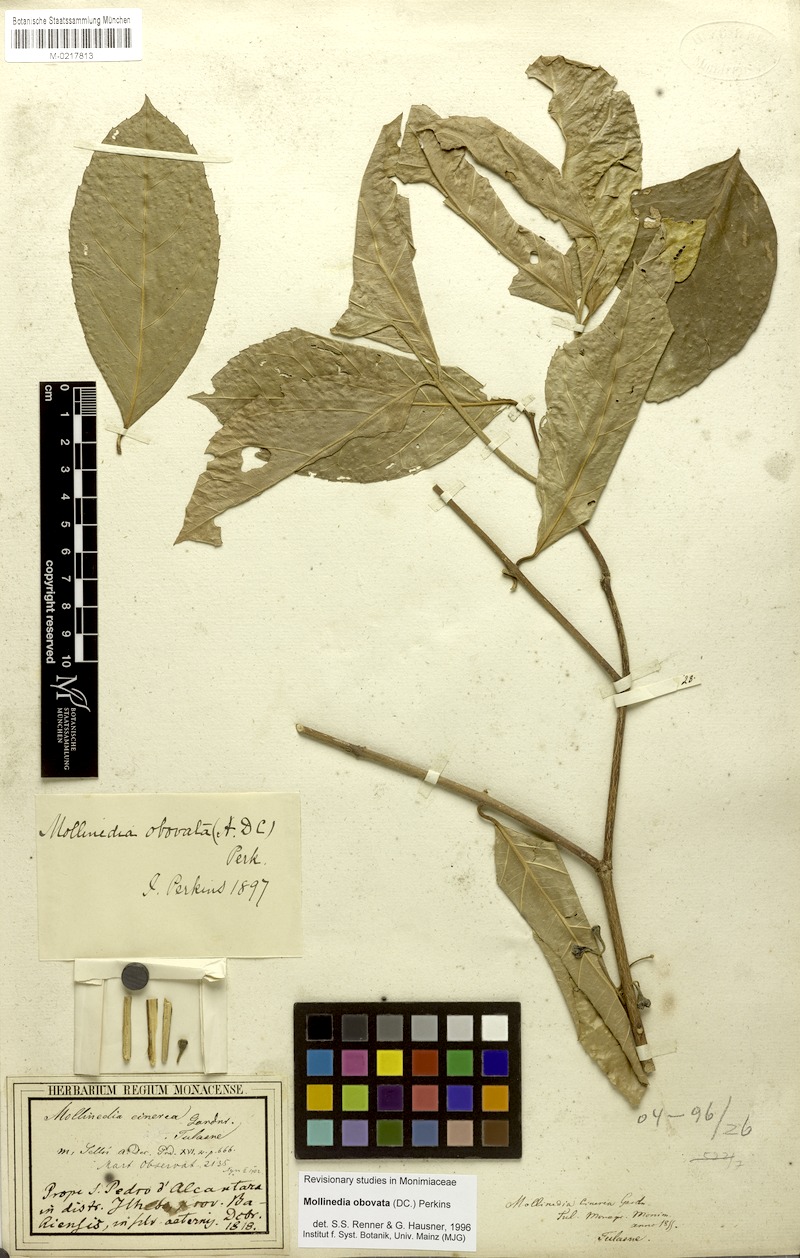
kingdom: Plantae
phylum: Tracheophyta
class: Magnoliopsida
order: Laurales
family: Monimiaceae
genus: Mollinedia
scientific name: Mollinedia ovata
